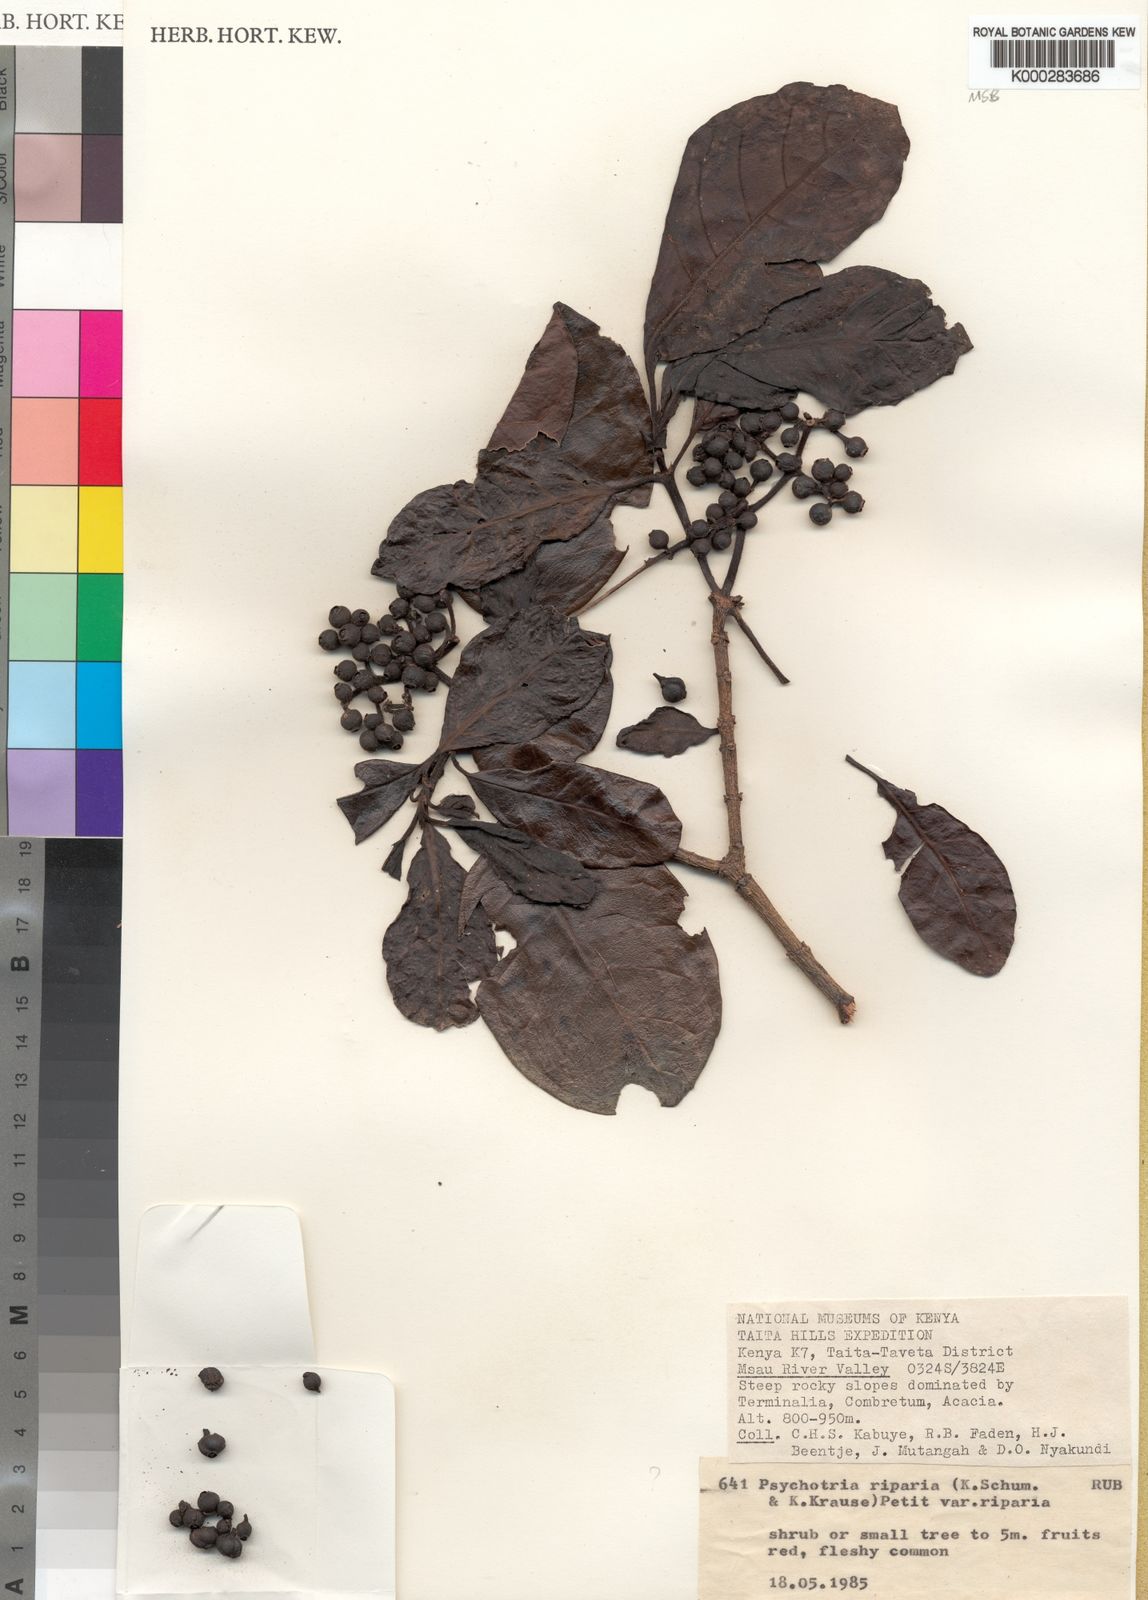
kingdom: Plantae
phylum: Tracheophyta
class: Magnoliopsida
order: Gentianales
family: Rubiaceae
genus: Psychotria
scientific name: Psychotria capensis
